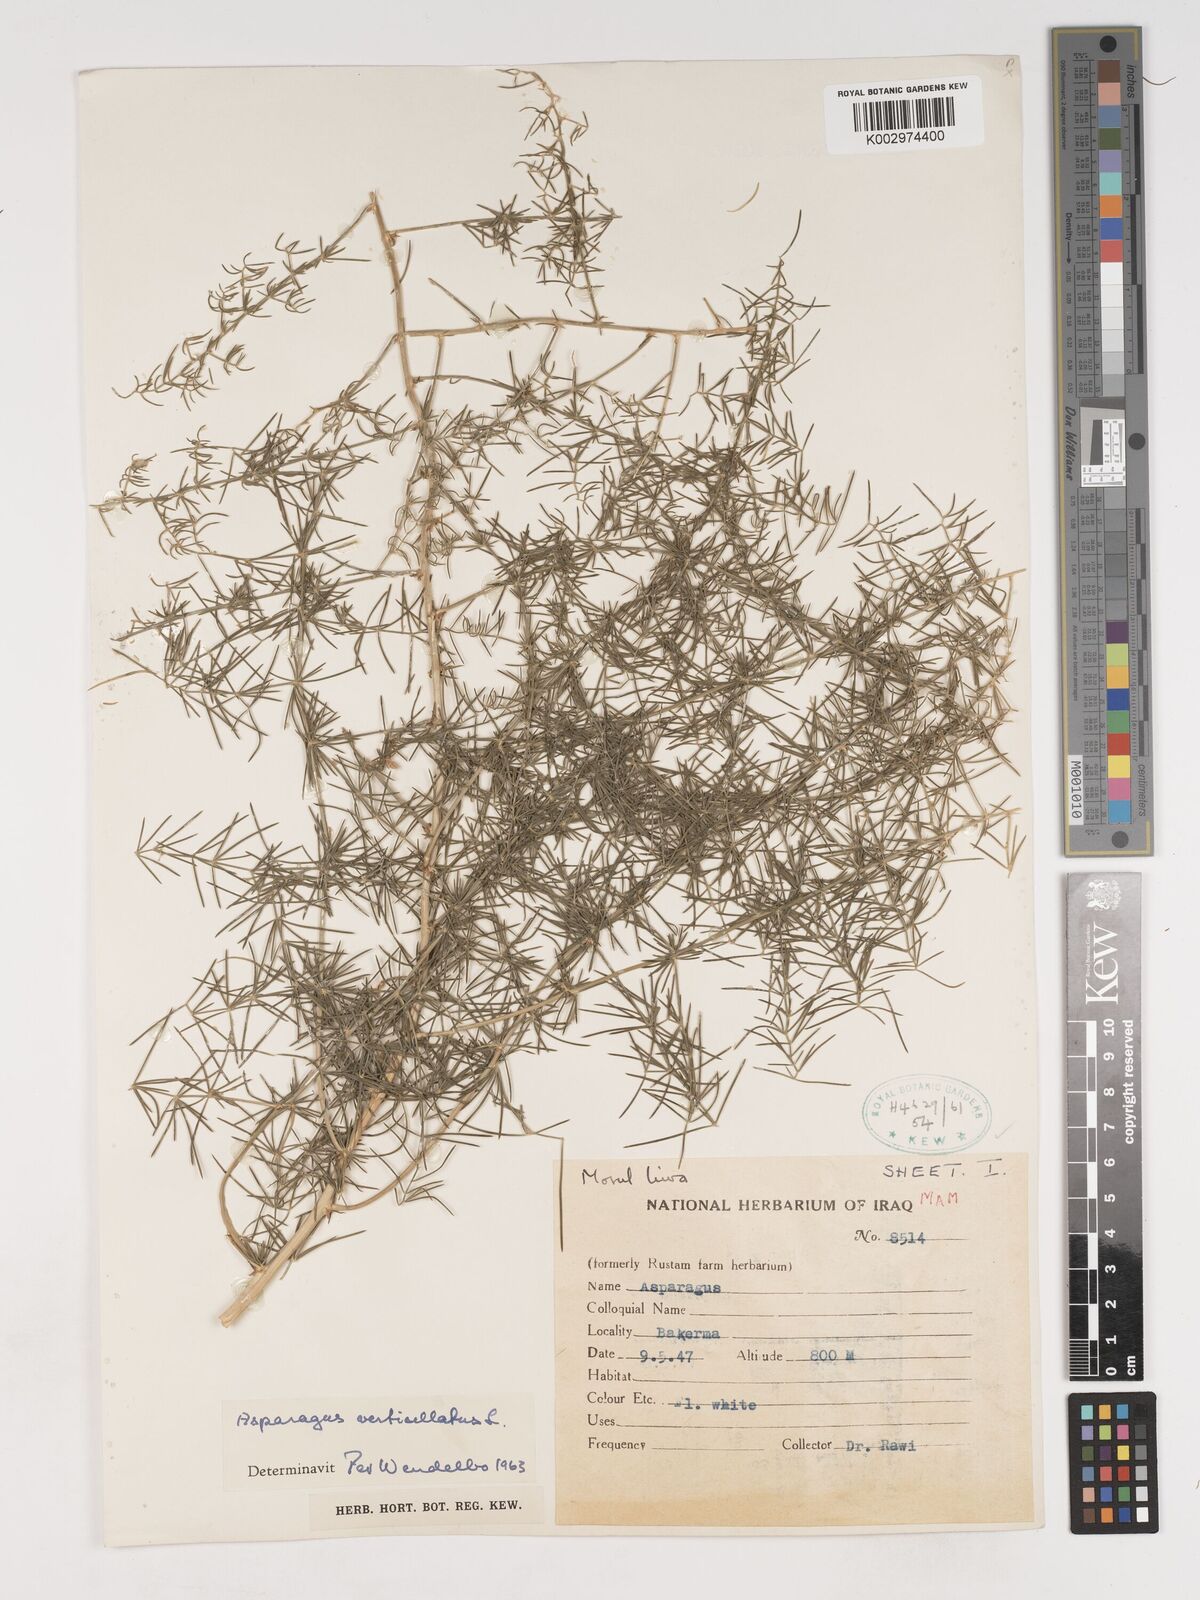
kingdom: Plantae
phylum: Tracheophyta
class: Liliopsida
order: Asparagales
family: Asparagaceae
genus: Asparagus
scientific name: Asparagus verticillatus
